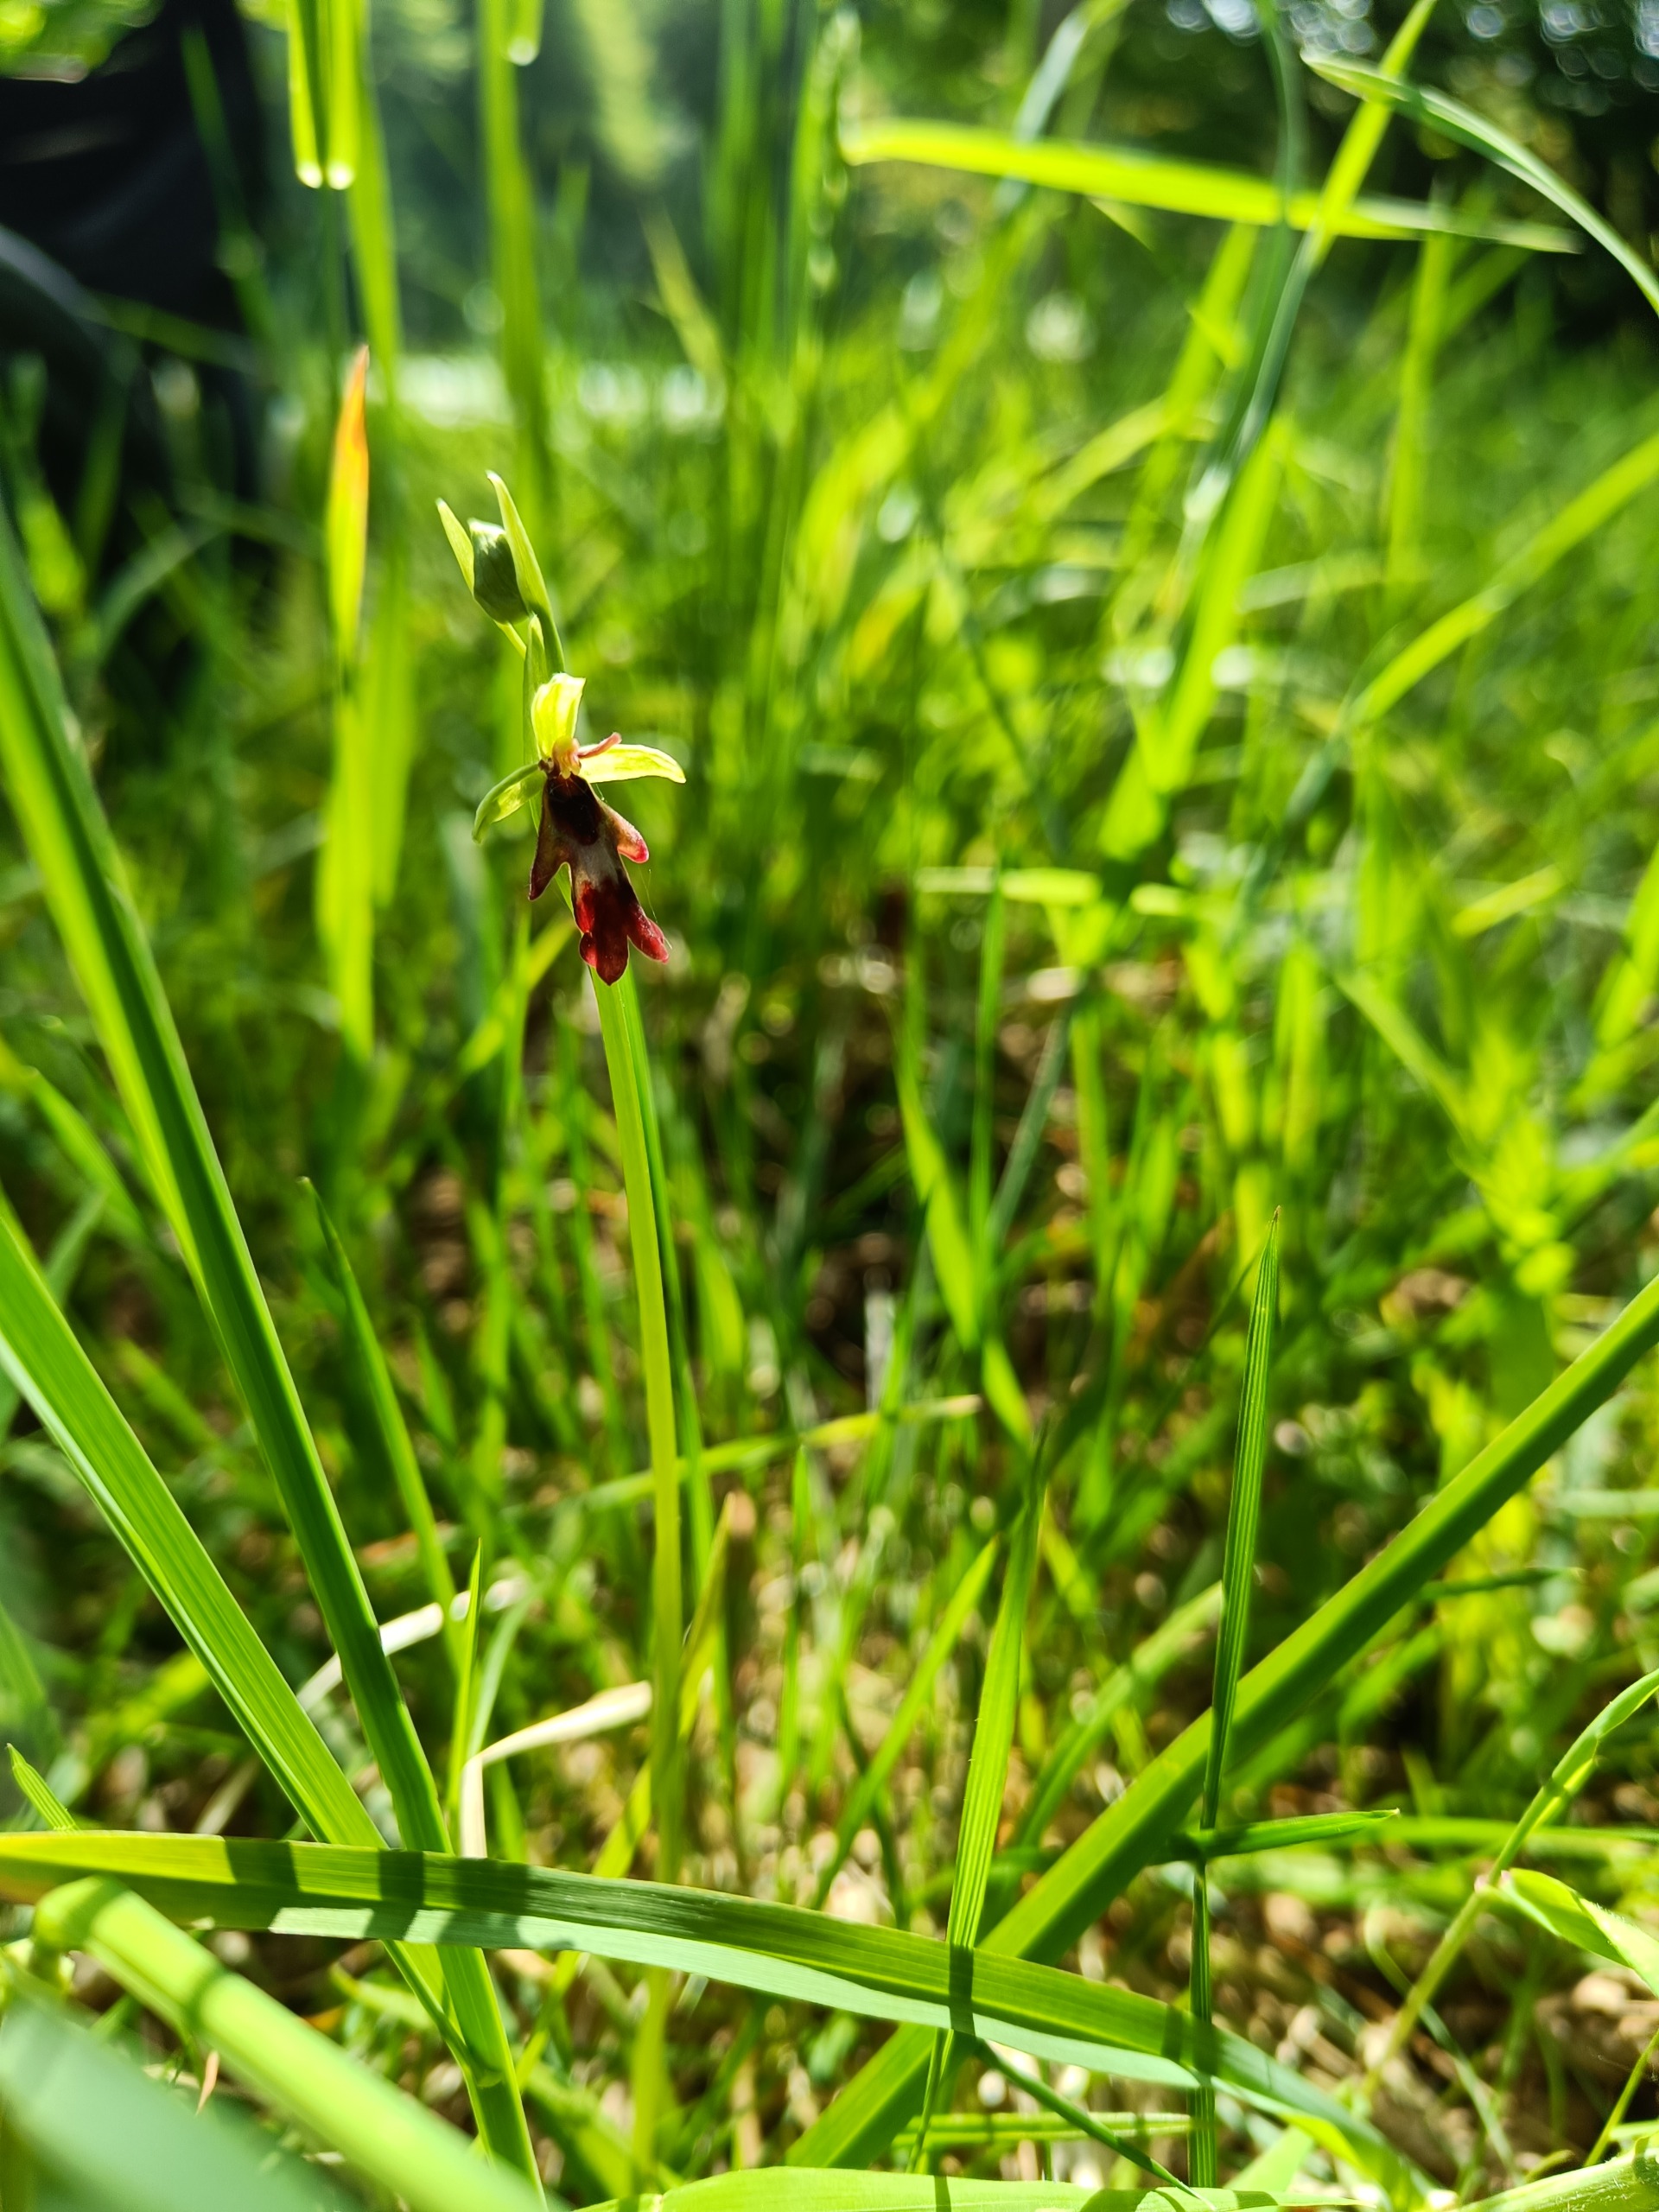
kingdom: Plantae
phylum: Tracheophyta
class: Liliopsida
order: Asparagales
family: Orchidaceae
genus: Ophrys
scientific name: Ophrys insectifera
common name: Flueblomst
